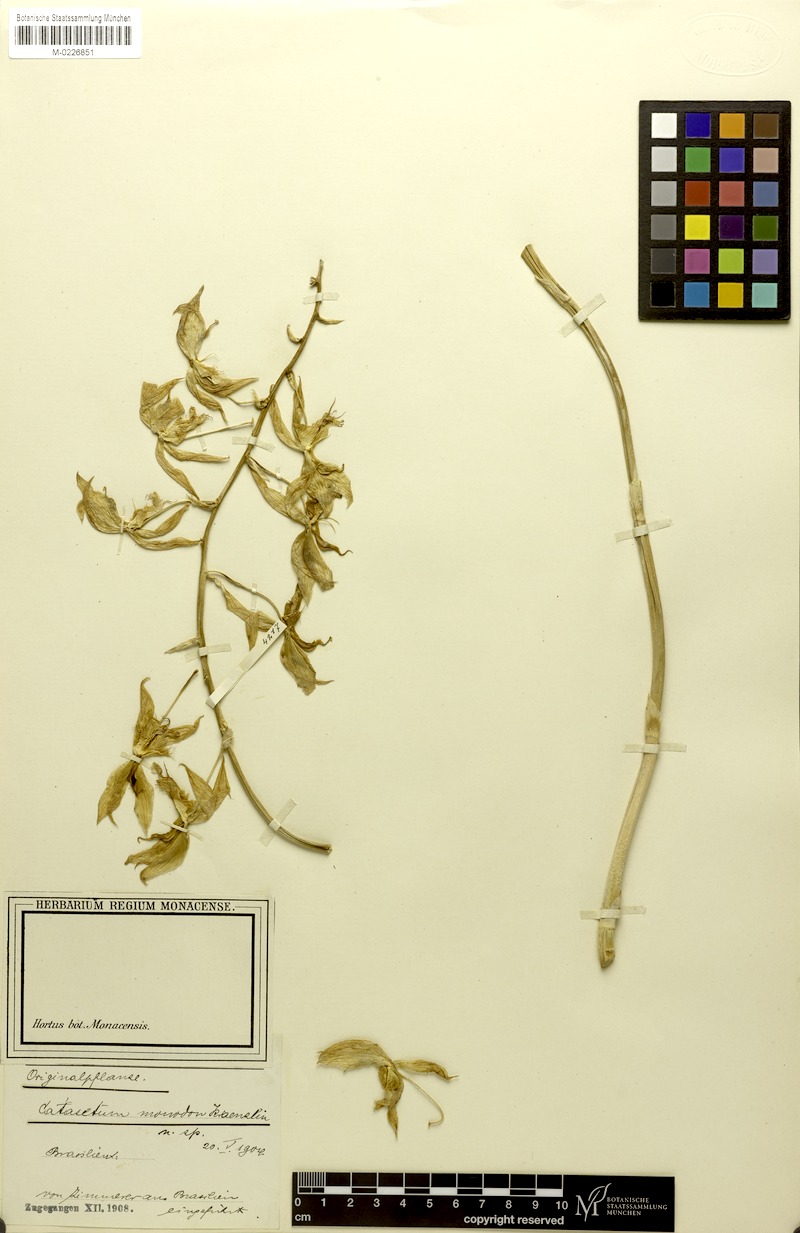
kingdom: Plantae
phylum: Tracheophyta
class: Liliopsida
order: Asparagales
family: Orchidaceae
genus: Catasetum
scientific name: Catasetum triodon
